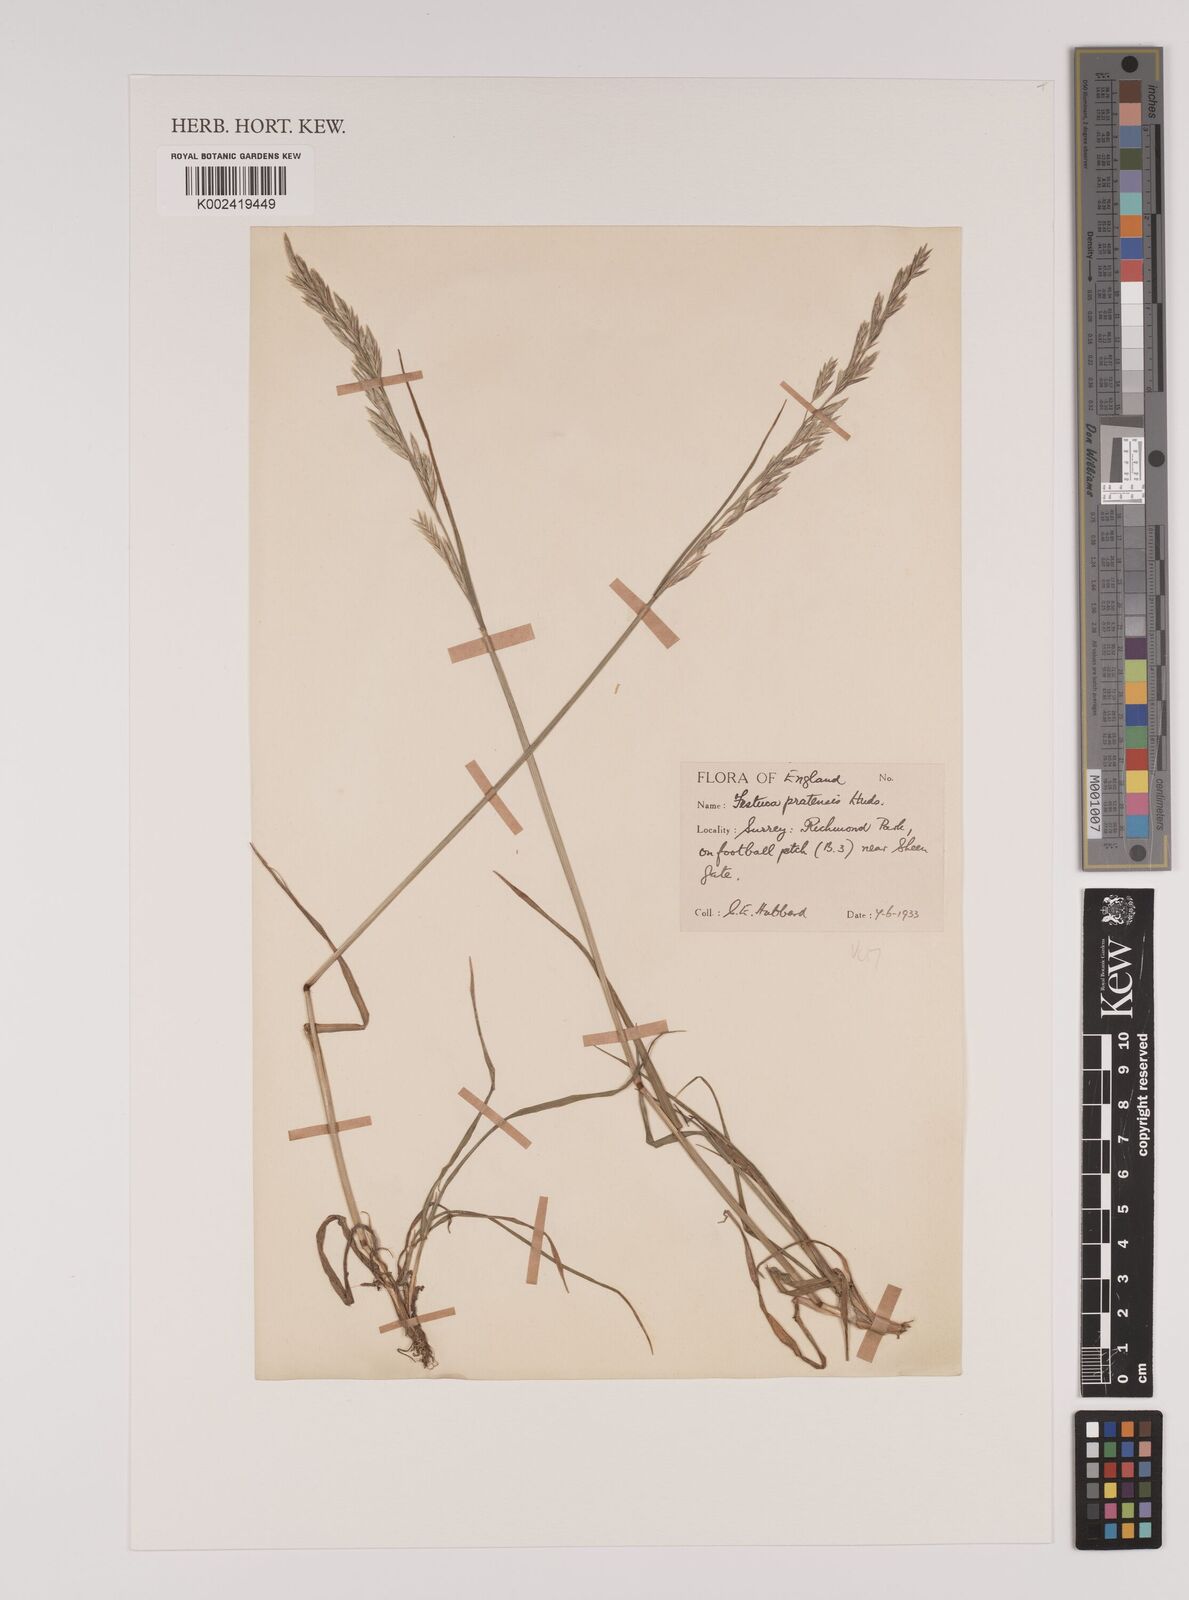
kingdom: Plantae
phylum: Tracheophyta
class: Liliopsida
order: Poales
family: Poaceae
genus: Lolium
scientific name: Lolium pratense
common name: Dover grass
